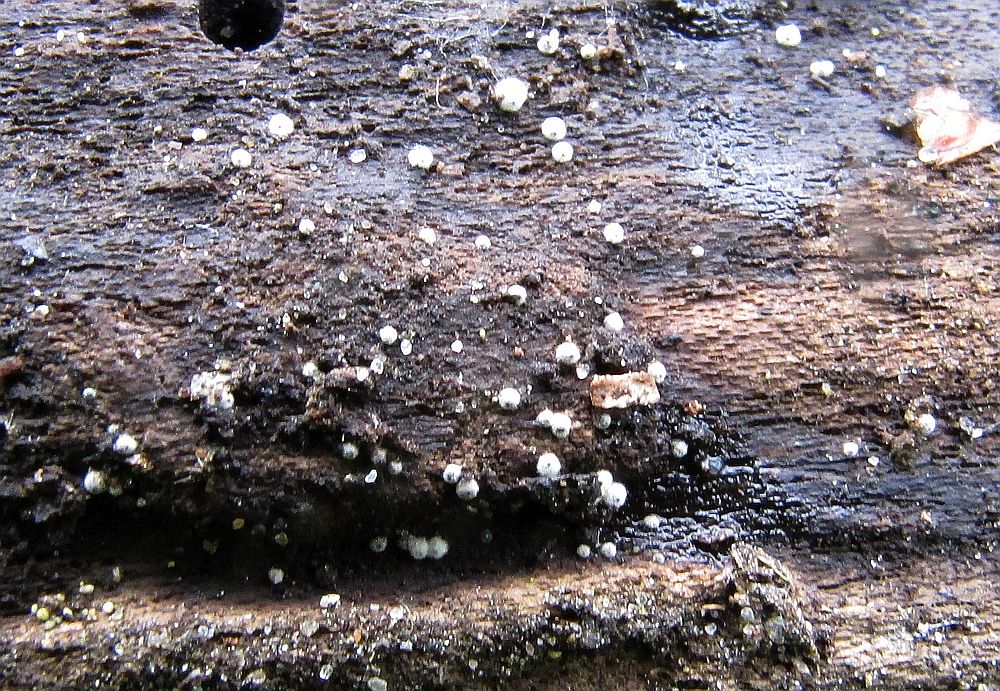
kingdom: Fungi
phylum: Ascomycota
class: Sordariomycetes
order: Sordariales
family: Lasiosphaeriaceae
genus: Lasiosphaeria
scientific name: Lasiosphaeria ovina
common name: fåre-kernesvamp
